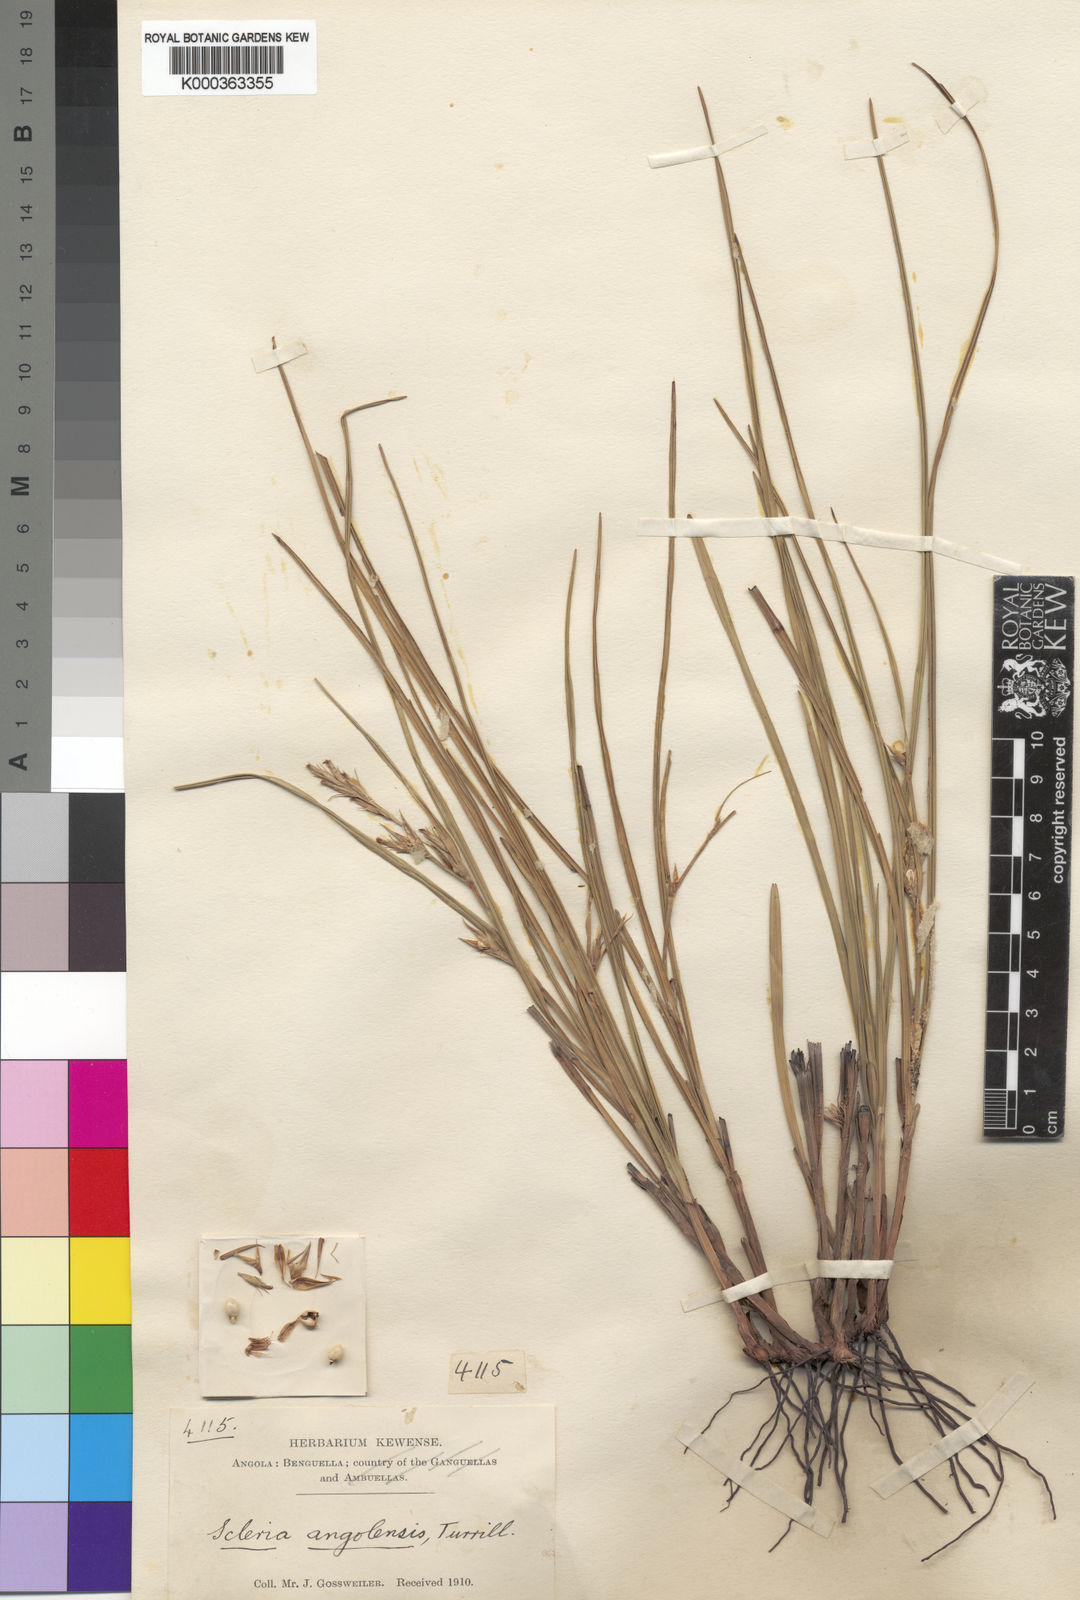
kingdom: Plantae
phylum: Tracheophyta
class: Liliopsida
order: Poales
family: Cyperaceae
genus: Scleria
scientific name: Scleria induta
